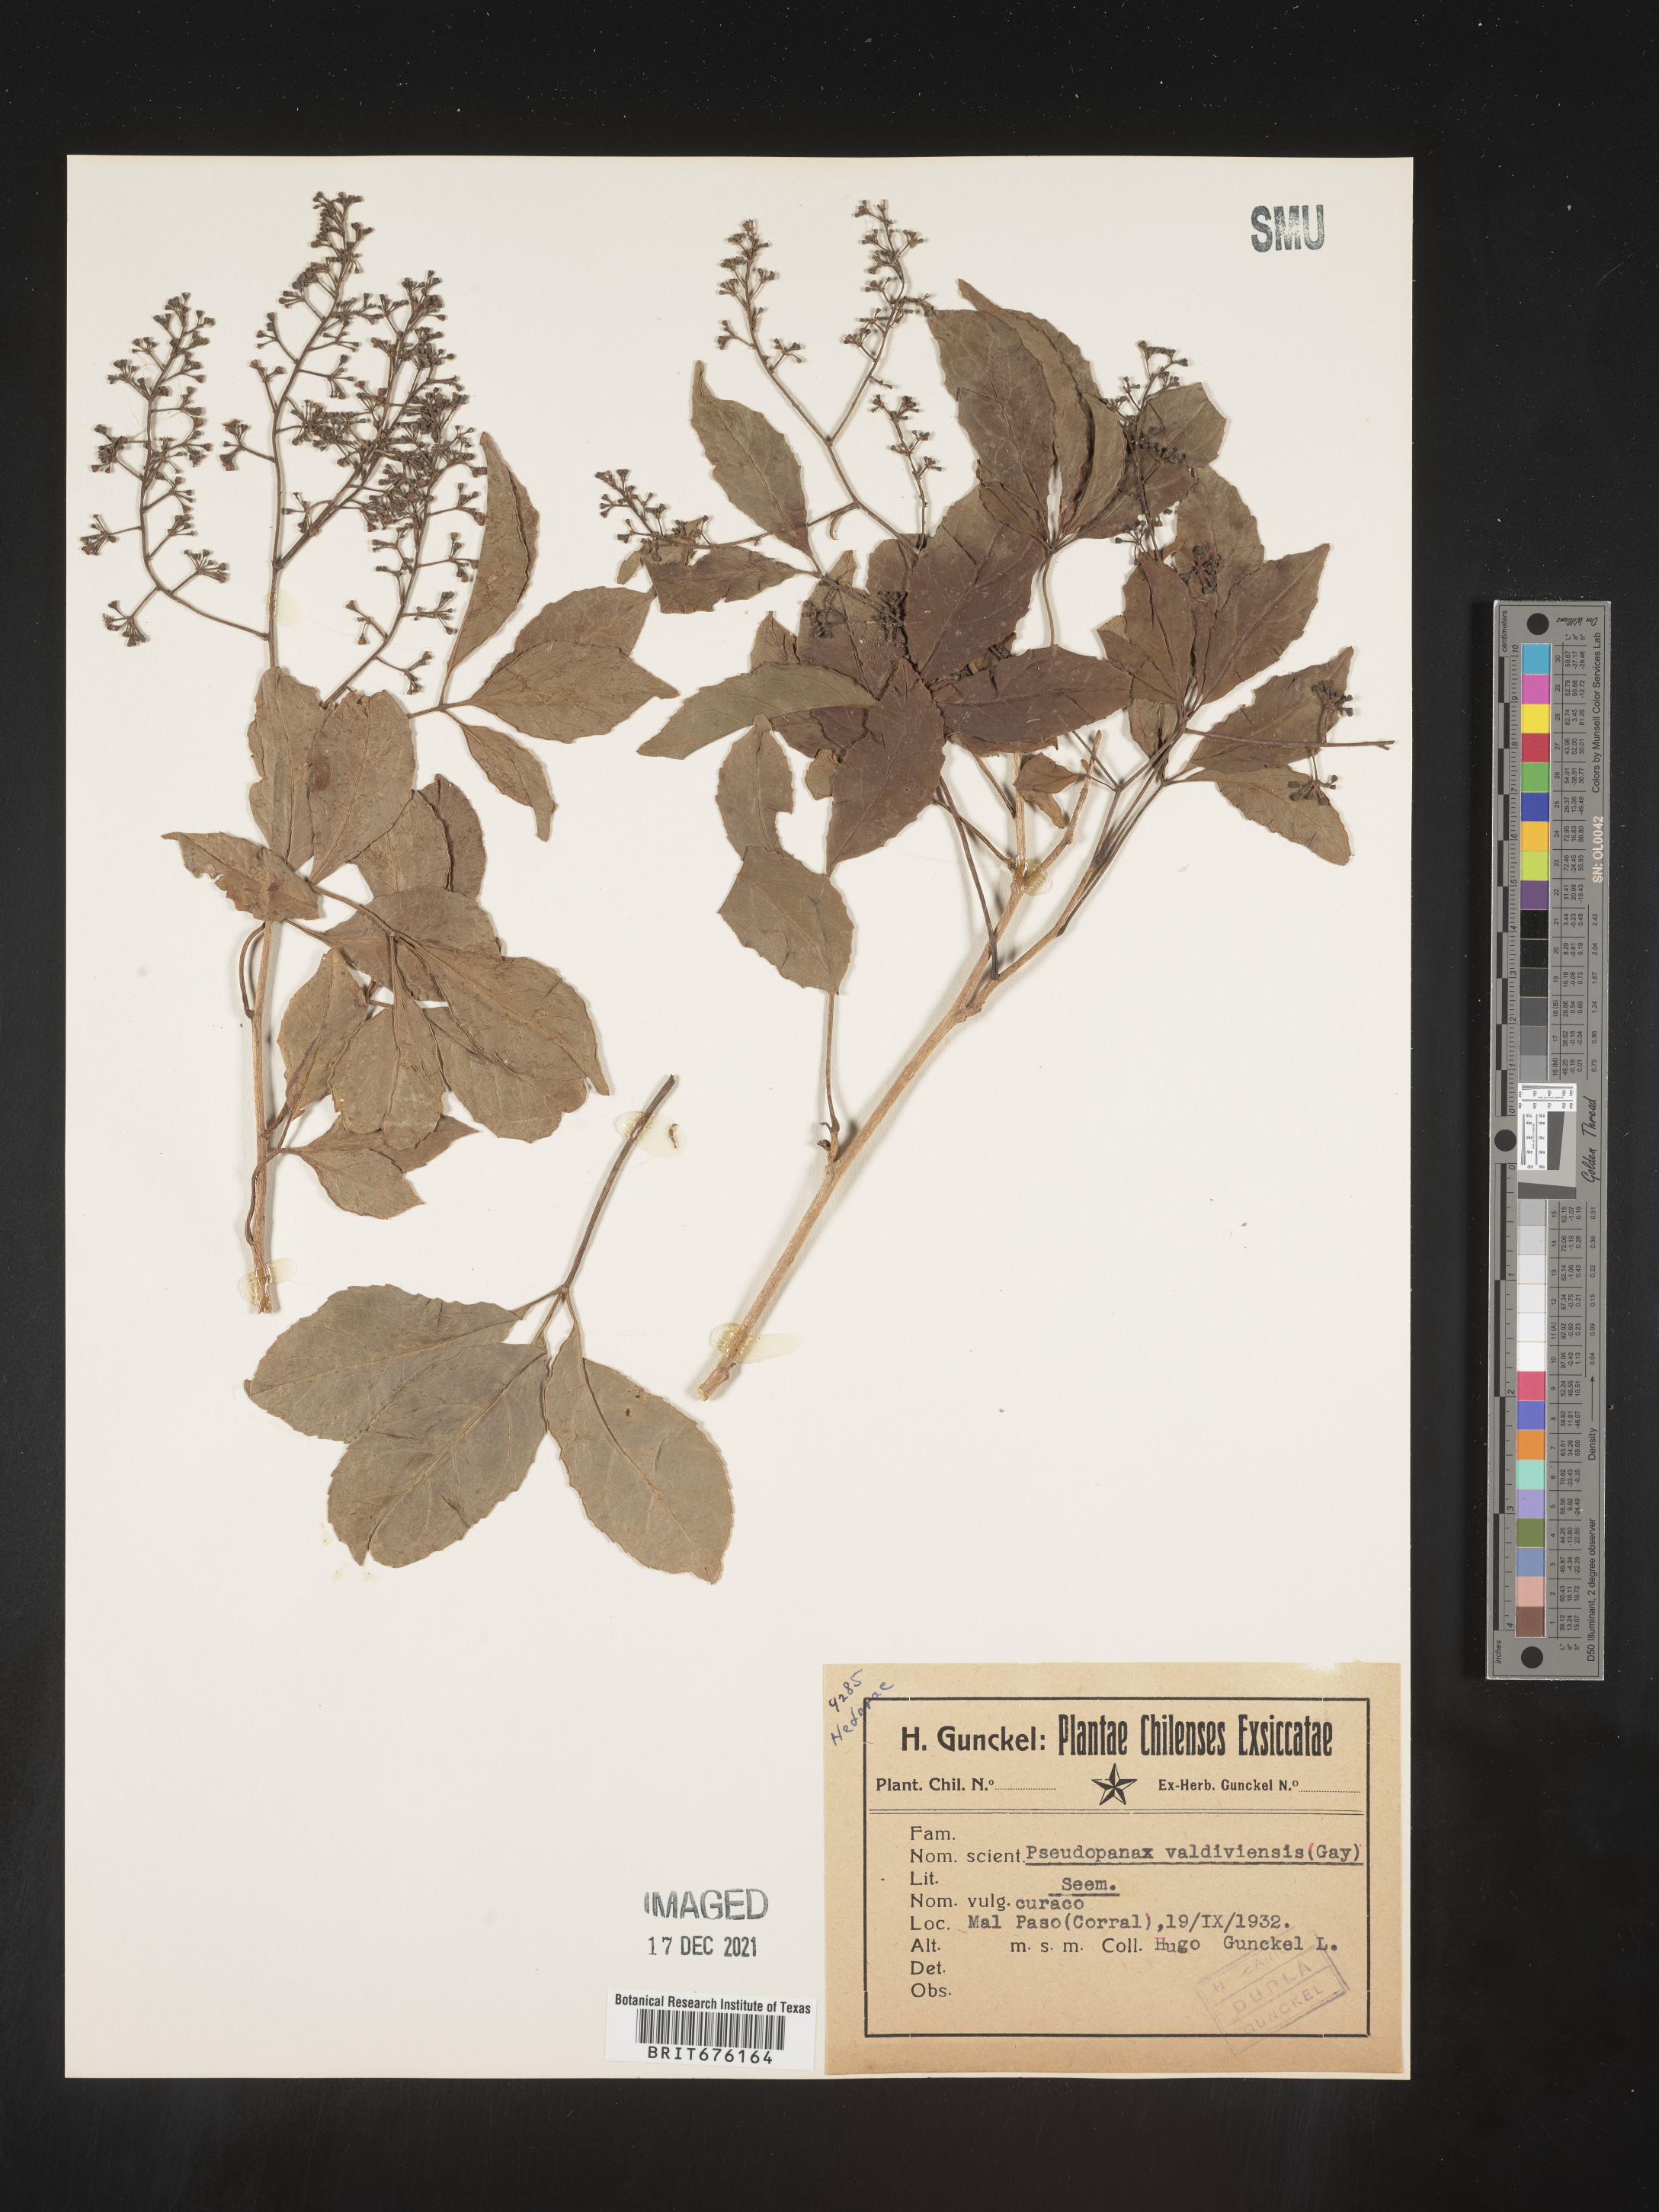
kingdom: Plantae
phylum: Tracheophyta
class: Magnoliopsida
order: Apiales
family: Araliaceae
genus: Pseudopanax
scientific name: Pseudopanax
